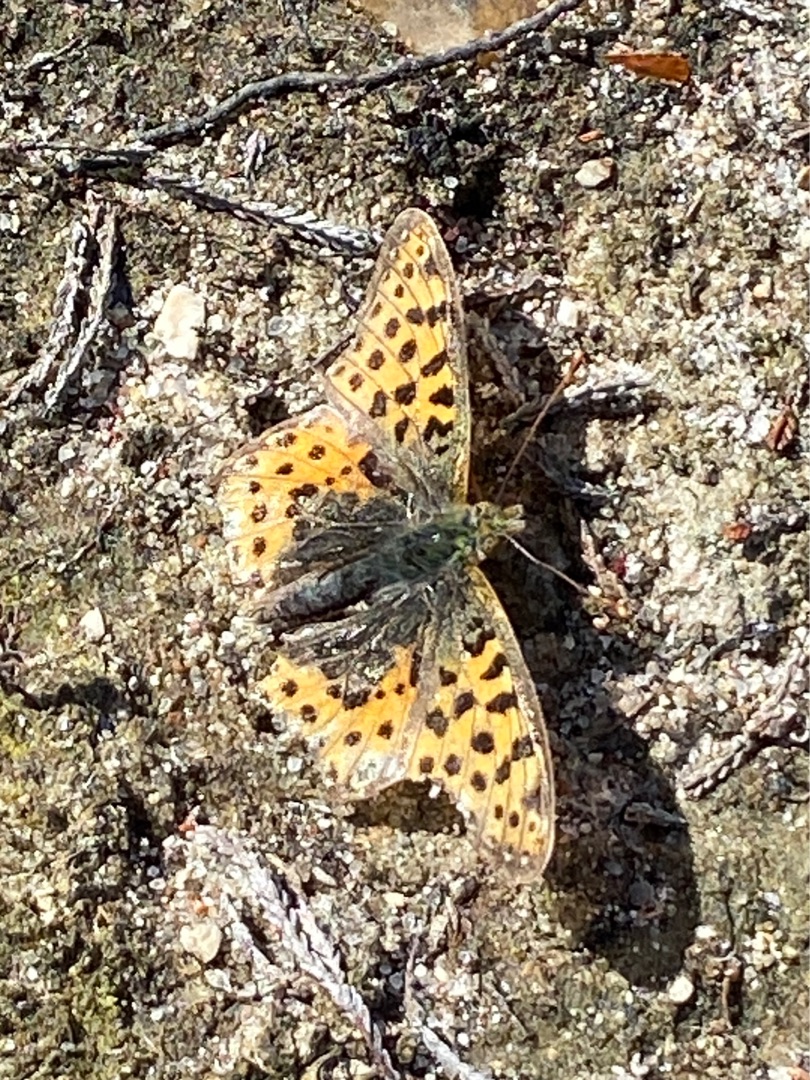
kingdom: Animalia
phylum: Arthropoda
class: Insecta
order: Lepidoptera
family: Nymphalidae
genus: Issoria
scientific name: Issoria lathonia
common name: Storplettet perlemorsommerfugl
